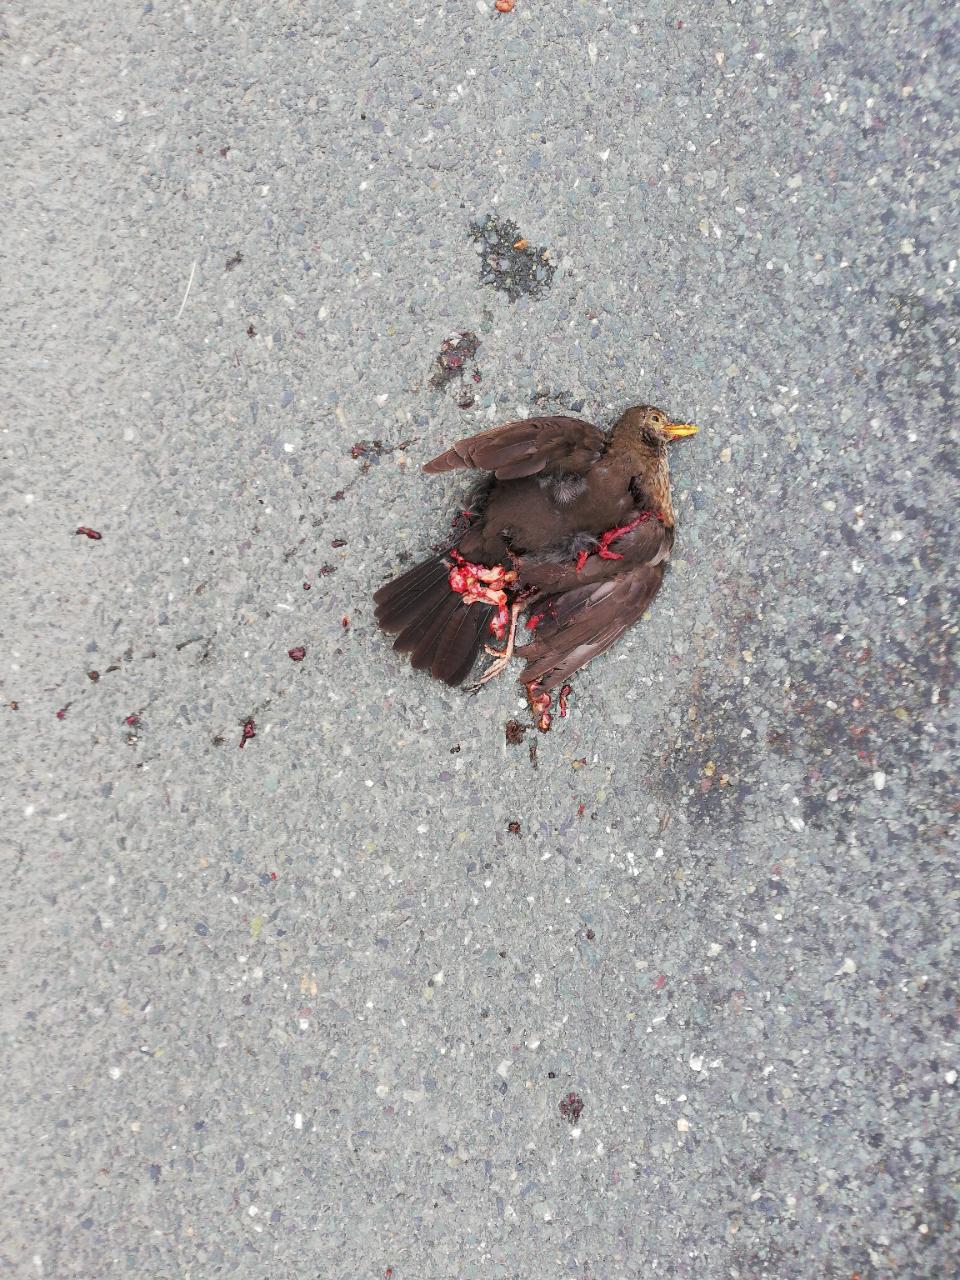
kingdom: Animalia
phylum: Chordata
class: Aves
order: Passeriformes
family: Turdidae
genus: Turdus
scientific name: Turdus merula
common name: Common blackbird
